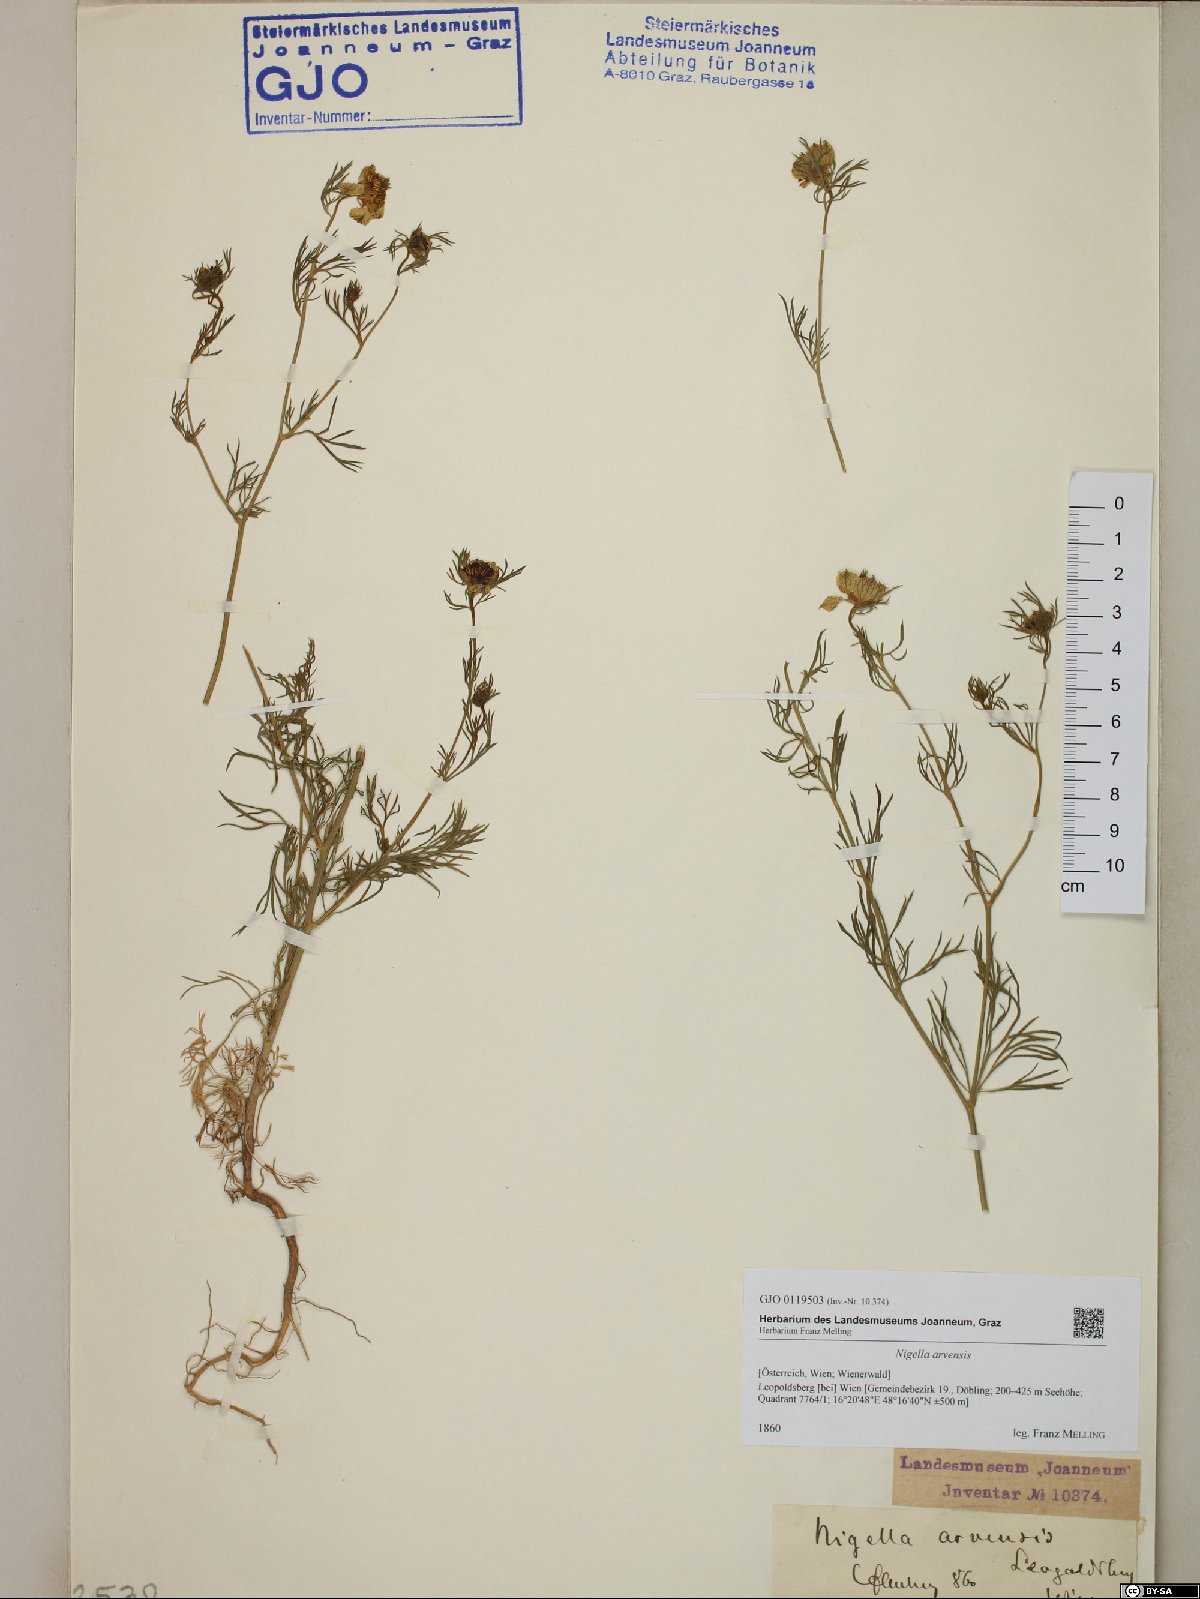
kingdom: Plantae
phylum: Tracheophyta
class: Magnoliopsida
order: Ranunculales
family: Ranunculaceae
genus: Nigella
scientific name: Nigella arvensis
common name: Wild fennel-flower
